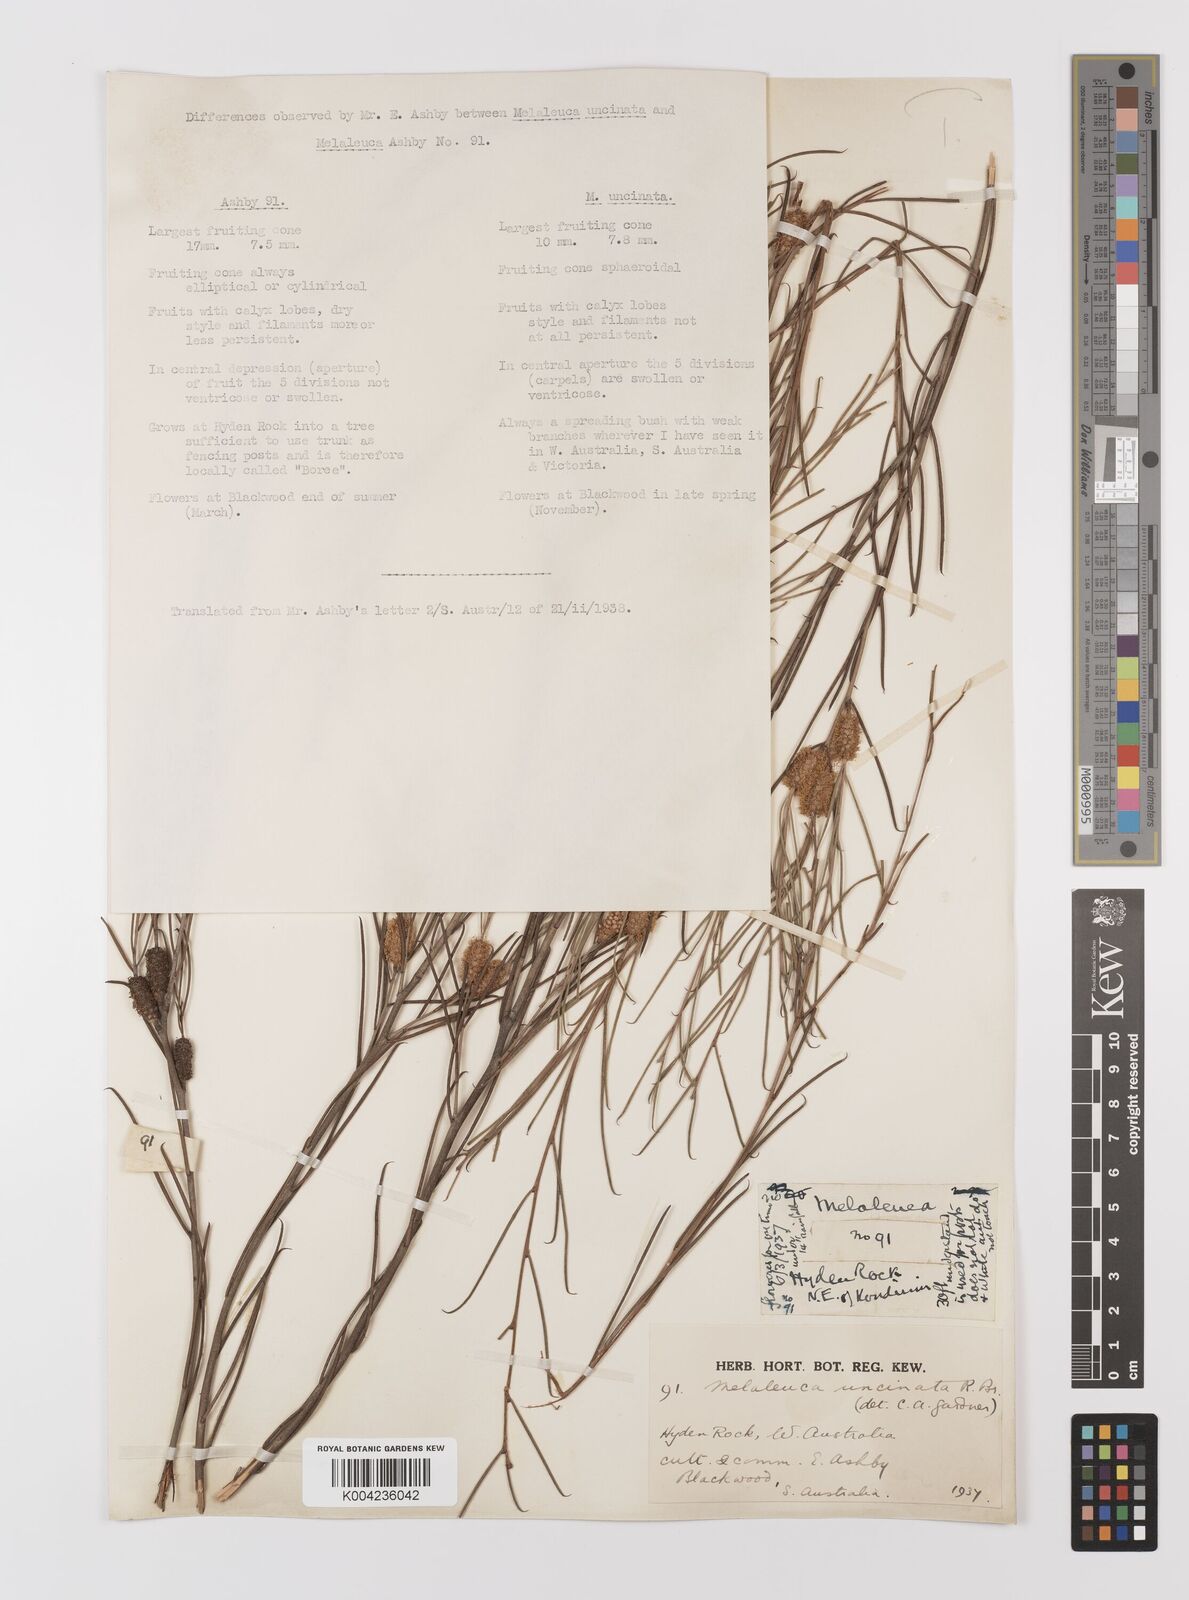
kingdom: Plantae
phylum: Tracheophyta
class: Magnoliopsida
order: Myrtales
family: Myrtaceae
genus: Melaleuca
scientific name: Melaleuca uncinata
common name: Broom honey myrtle
